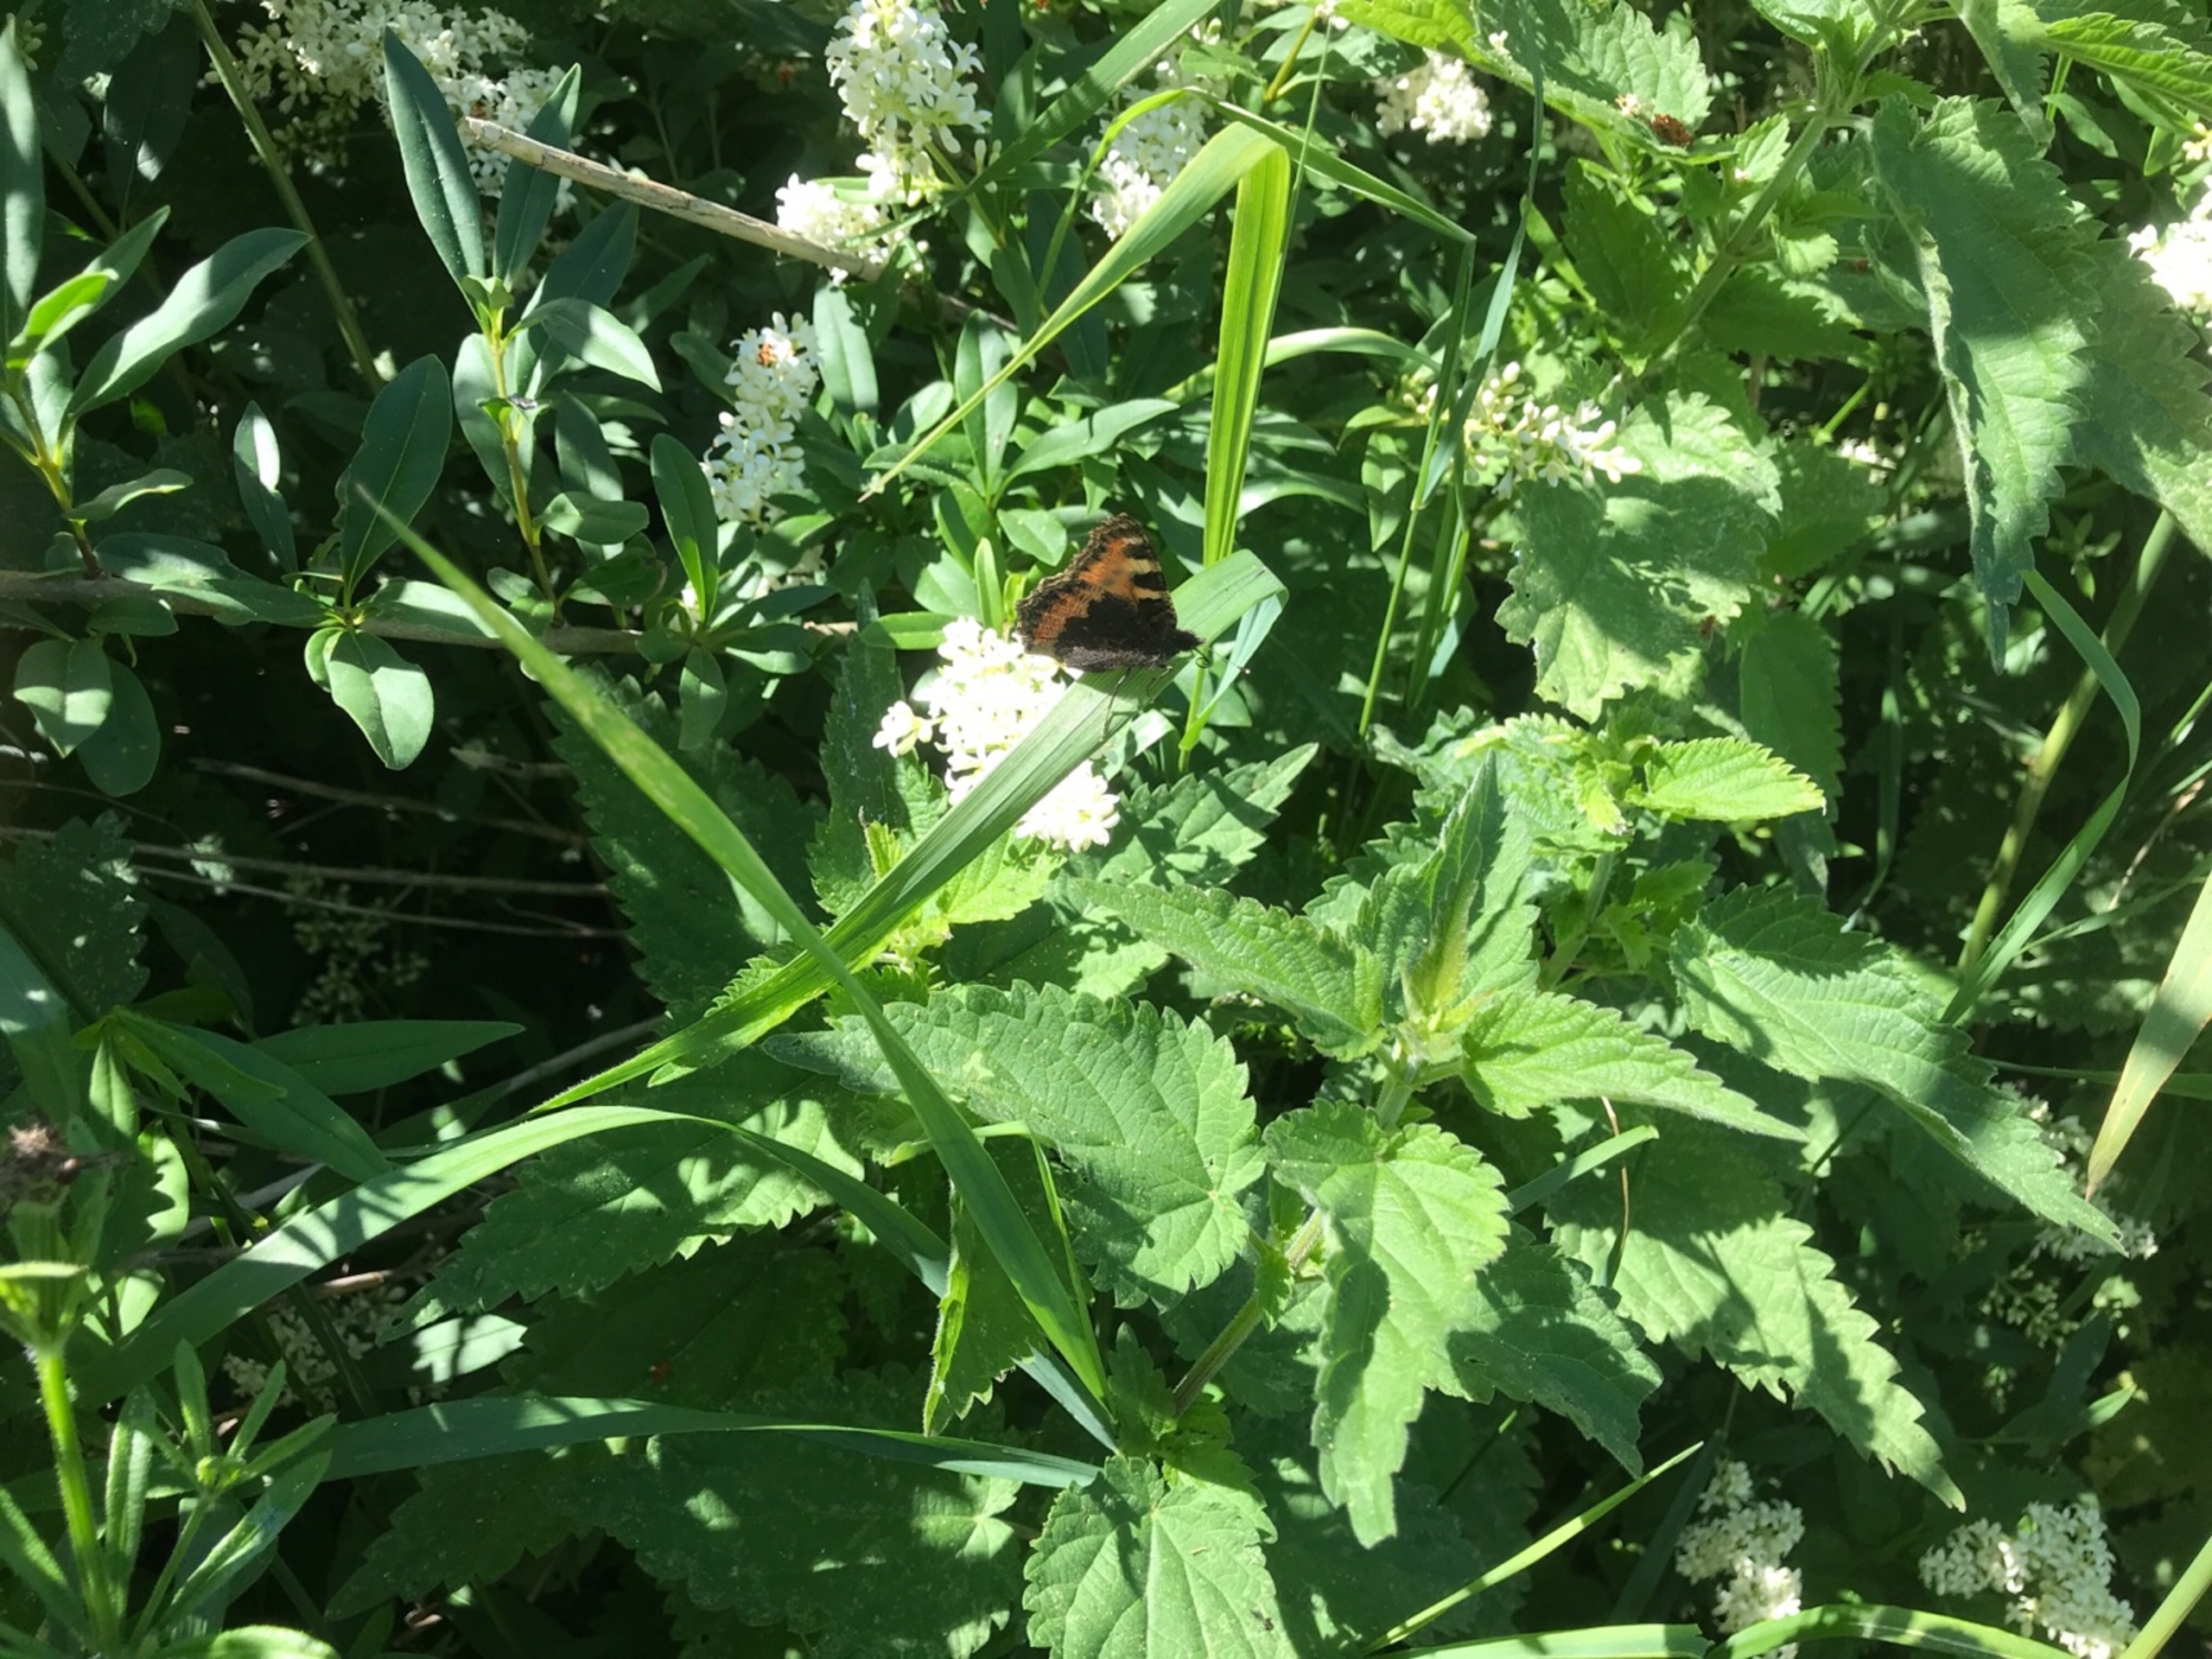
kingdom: Animalia
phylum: Arthropoda
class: Insecta
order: Lepidoptera
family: Nymphalidae
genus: Aglais
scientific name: Aglais urticae
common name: Nældens takvinge
